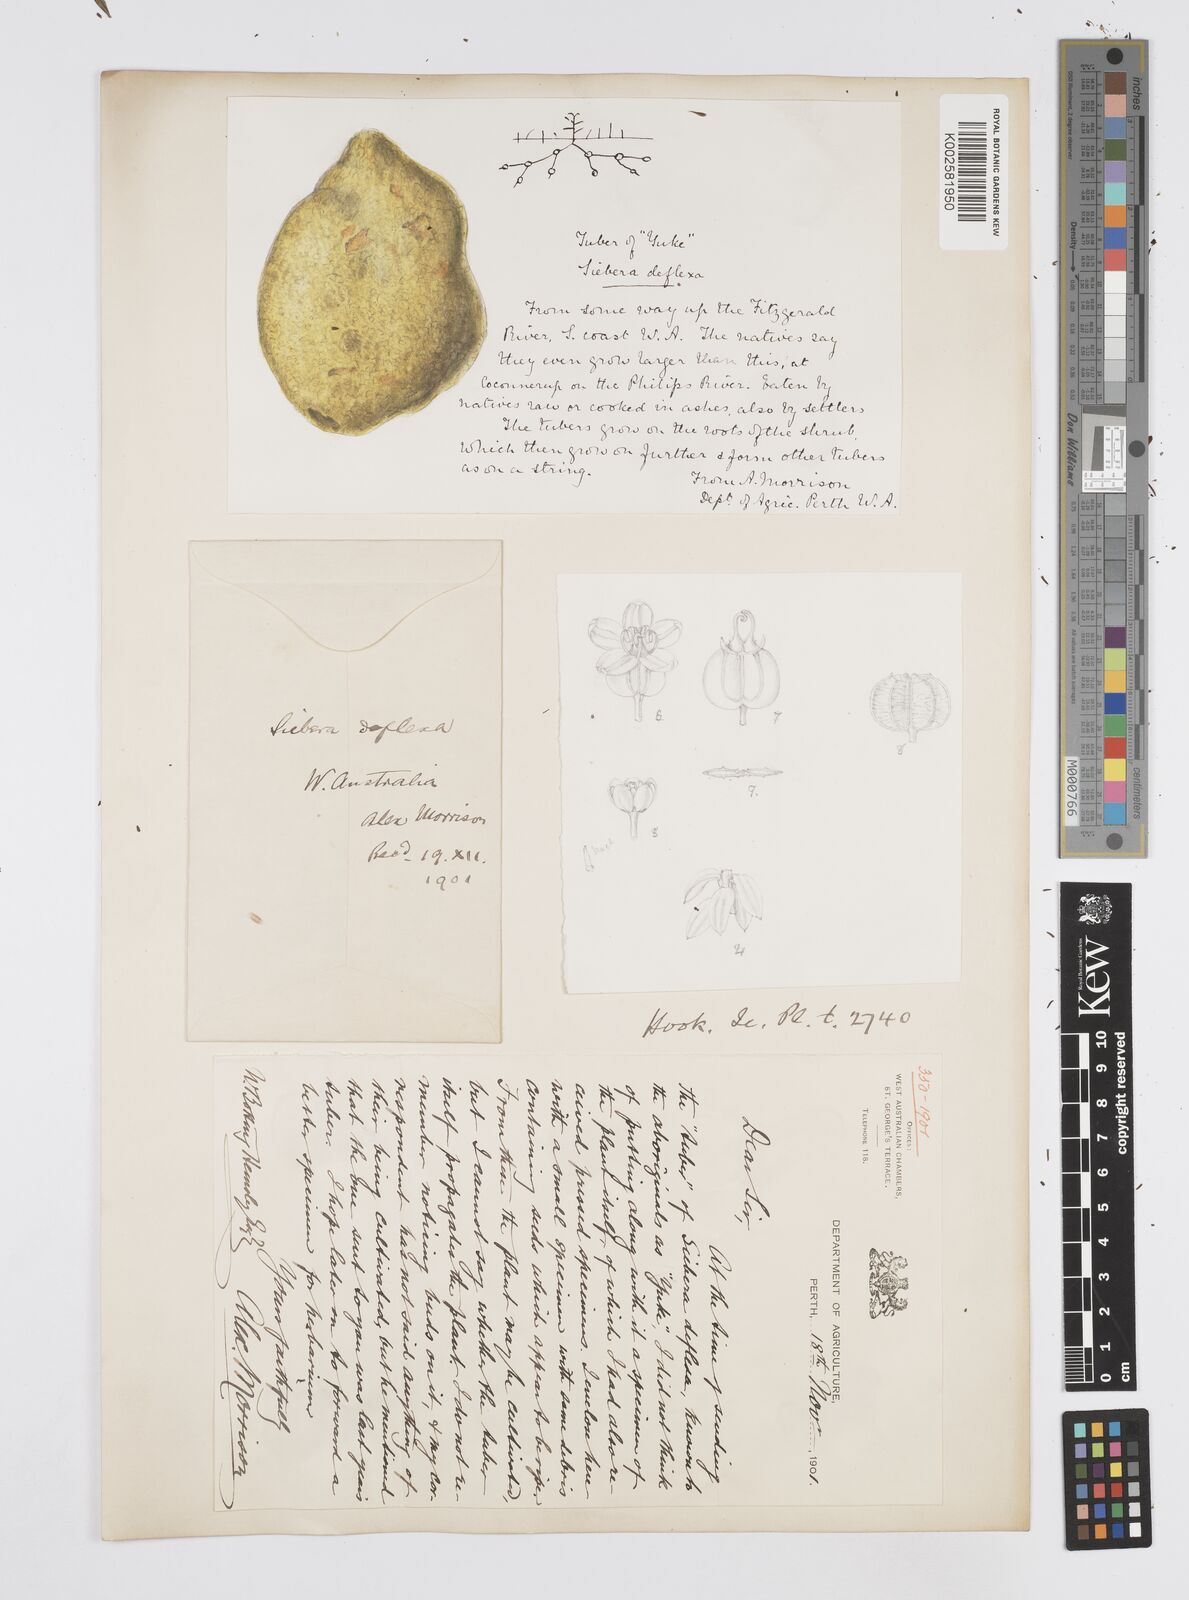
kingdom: Plantae
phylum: Tracheophyta
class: Magnoliopsida
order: Apiales
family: Apiaceae
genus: Platysace
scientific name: Platysace deflexa
